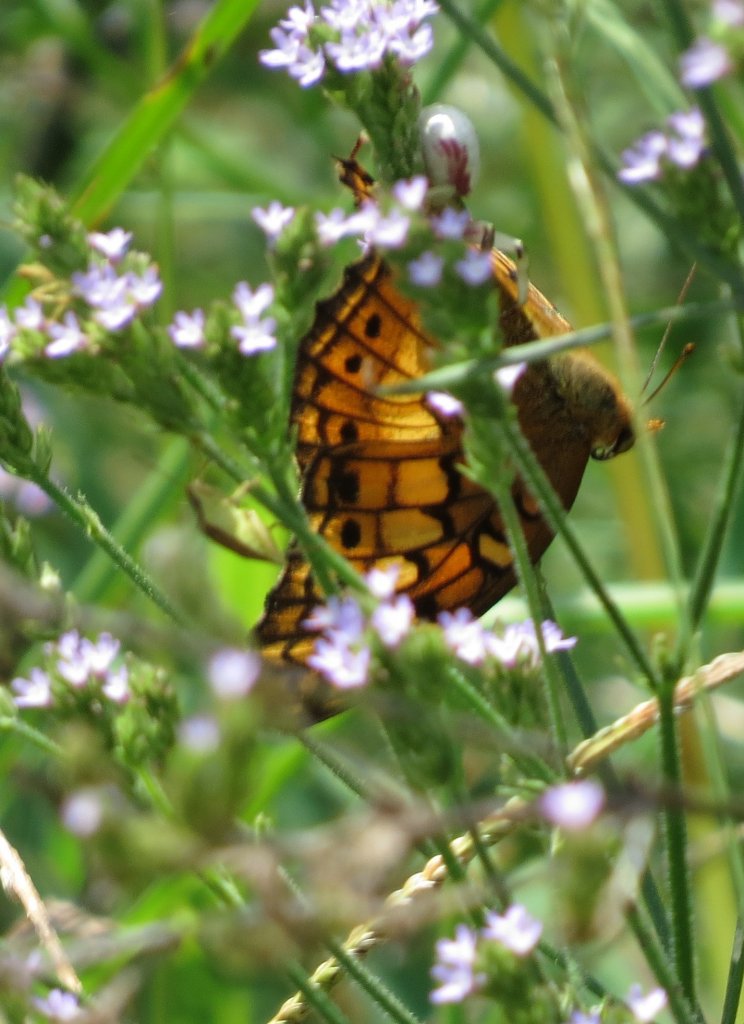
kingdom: Animalia
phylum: Arthropoda
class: Insecta
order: Lepidoptera
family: Nymphalidae
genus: Euptoieta
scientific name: Euptoieta claudia
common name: Variegated Fritillary
